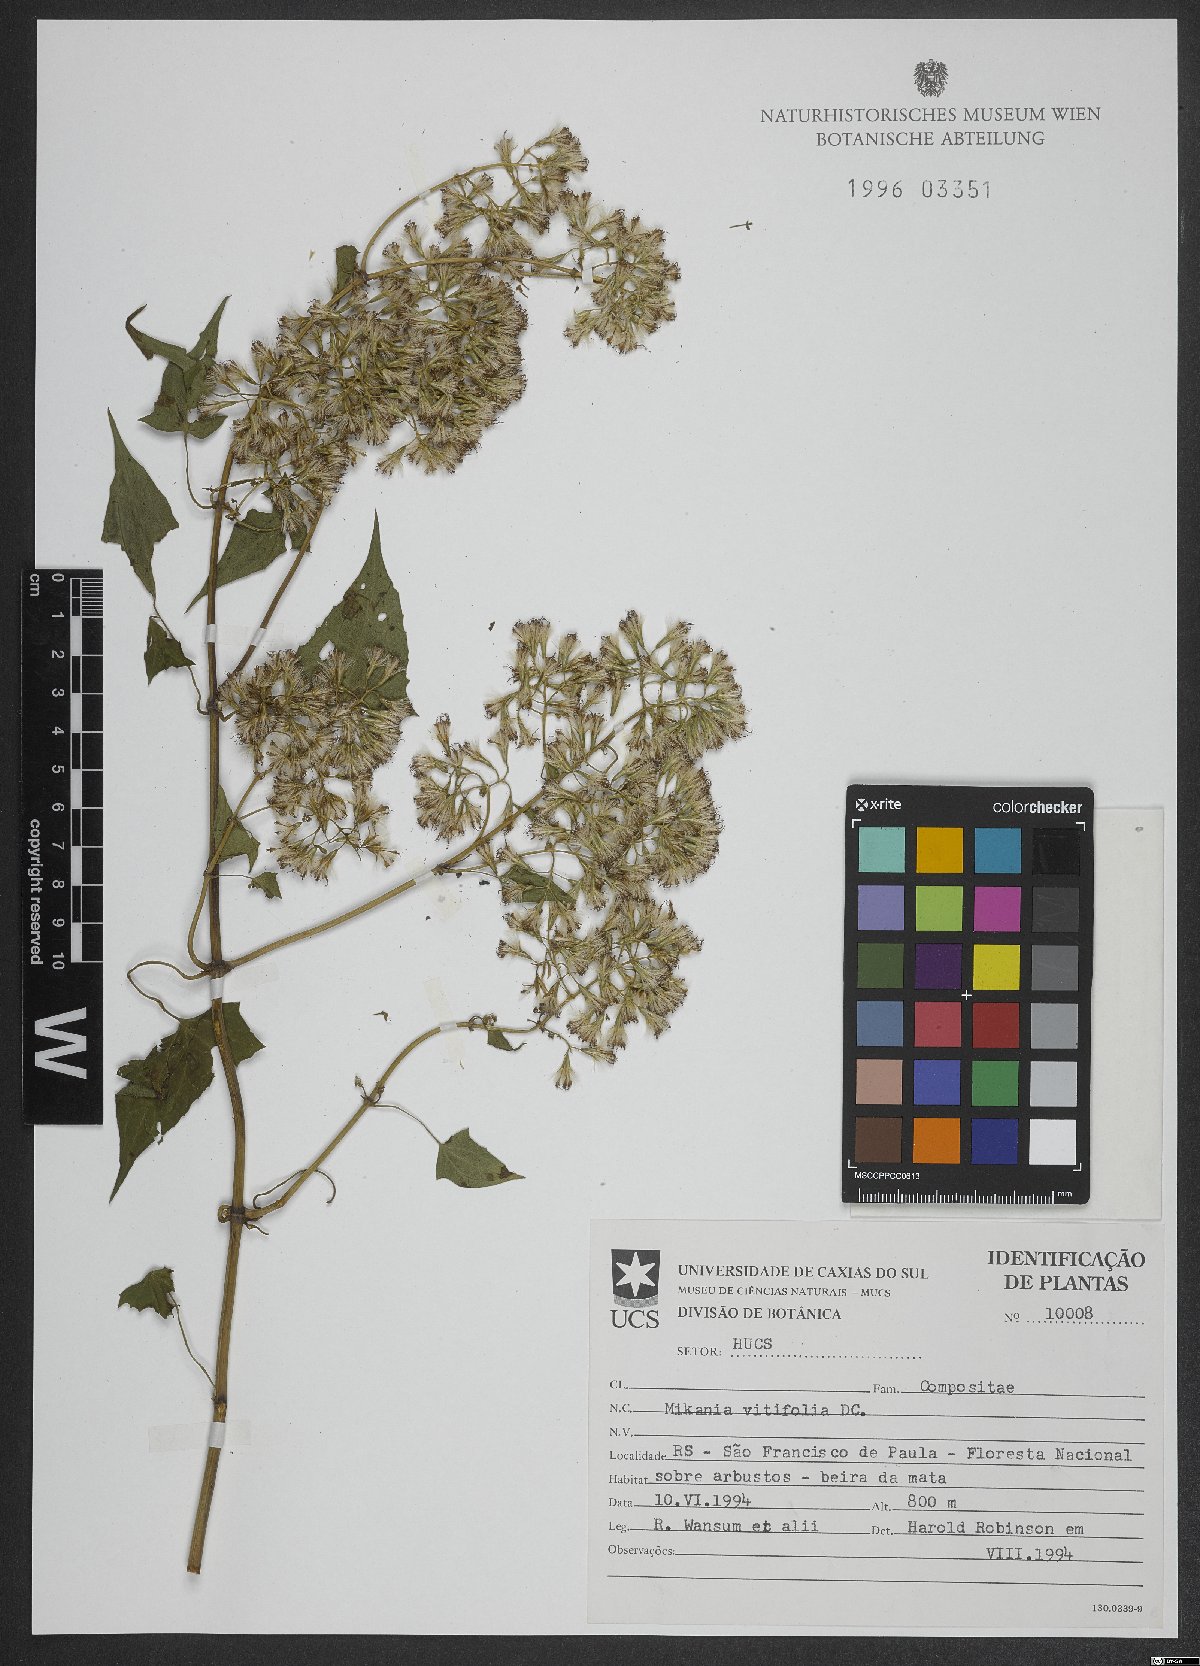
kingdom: Plantae
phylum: Tracheophyta
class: Magnoliopsida
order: Asterales
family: Asteraceae
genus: Mikania
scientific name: Mikania vitifolia
